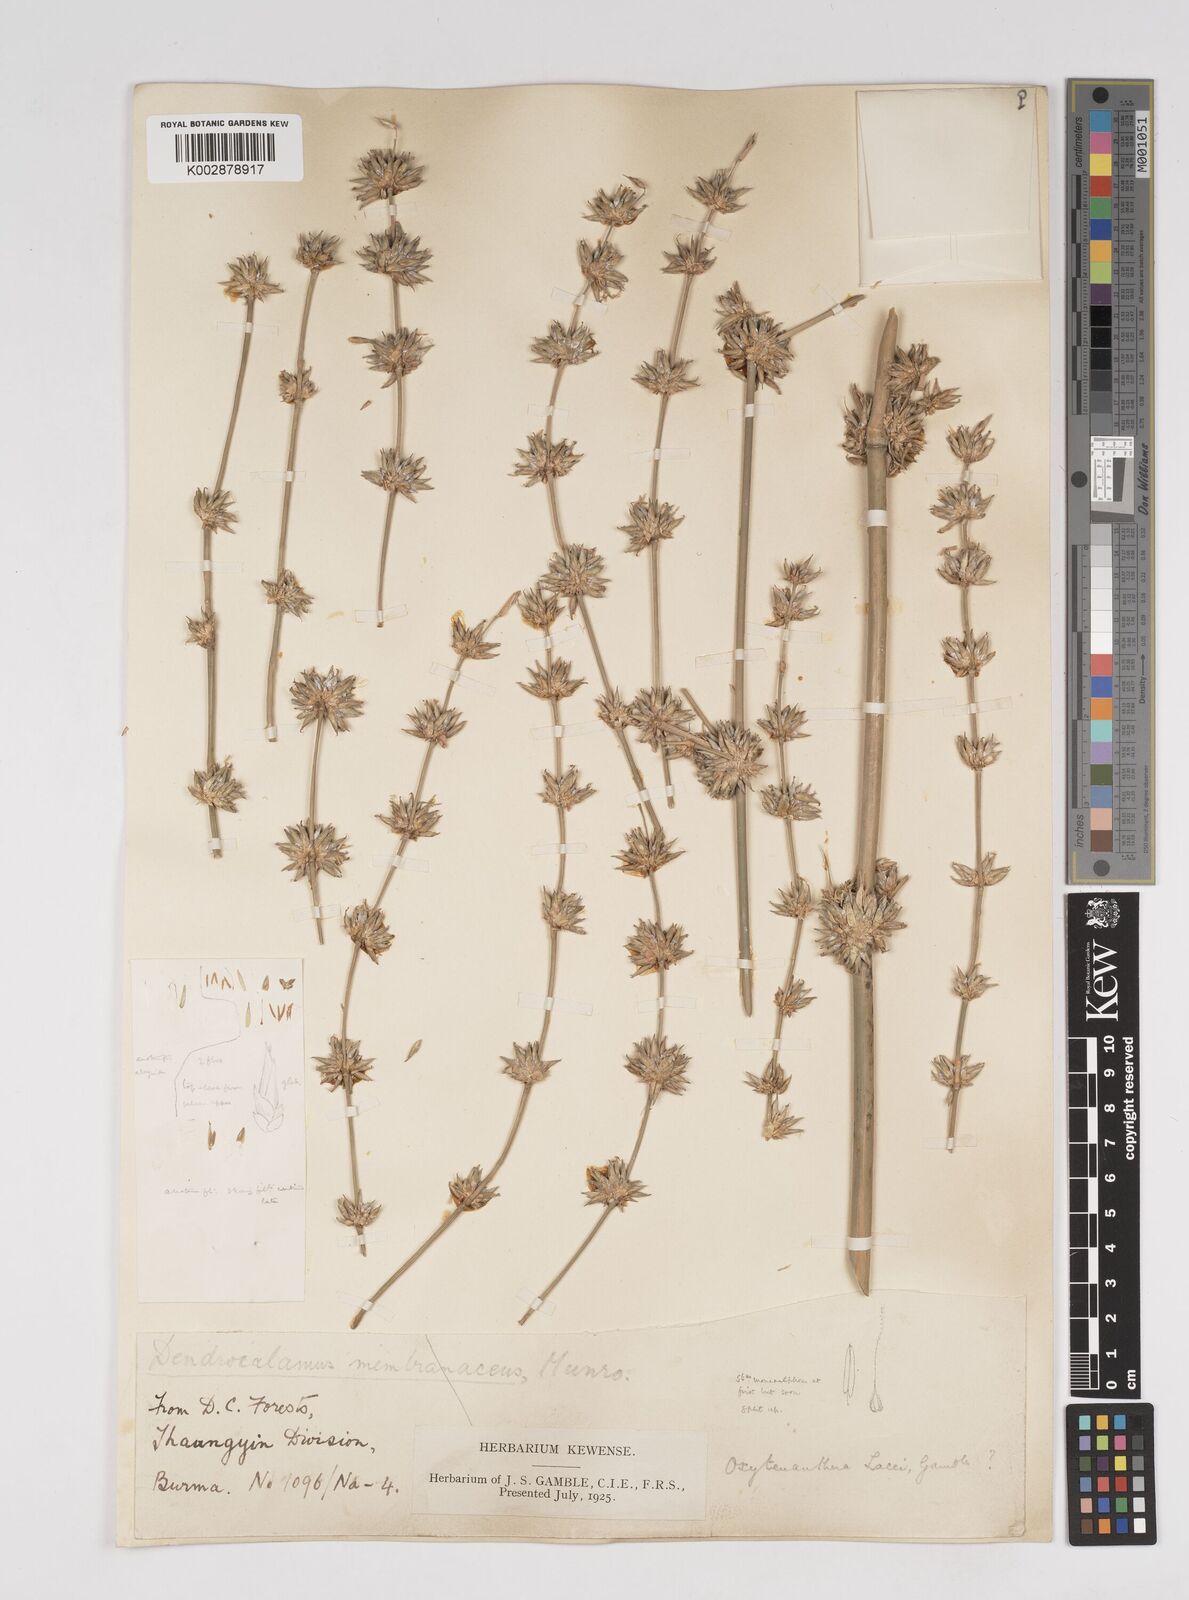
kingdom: Plantae
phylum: Tracheophyta
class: Liliopsida
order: Poales
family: Poaceae
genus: Dendrocalamus
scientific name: Dendrocalamus
